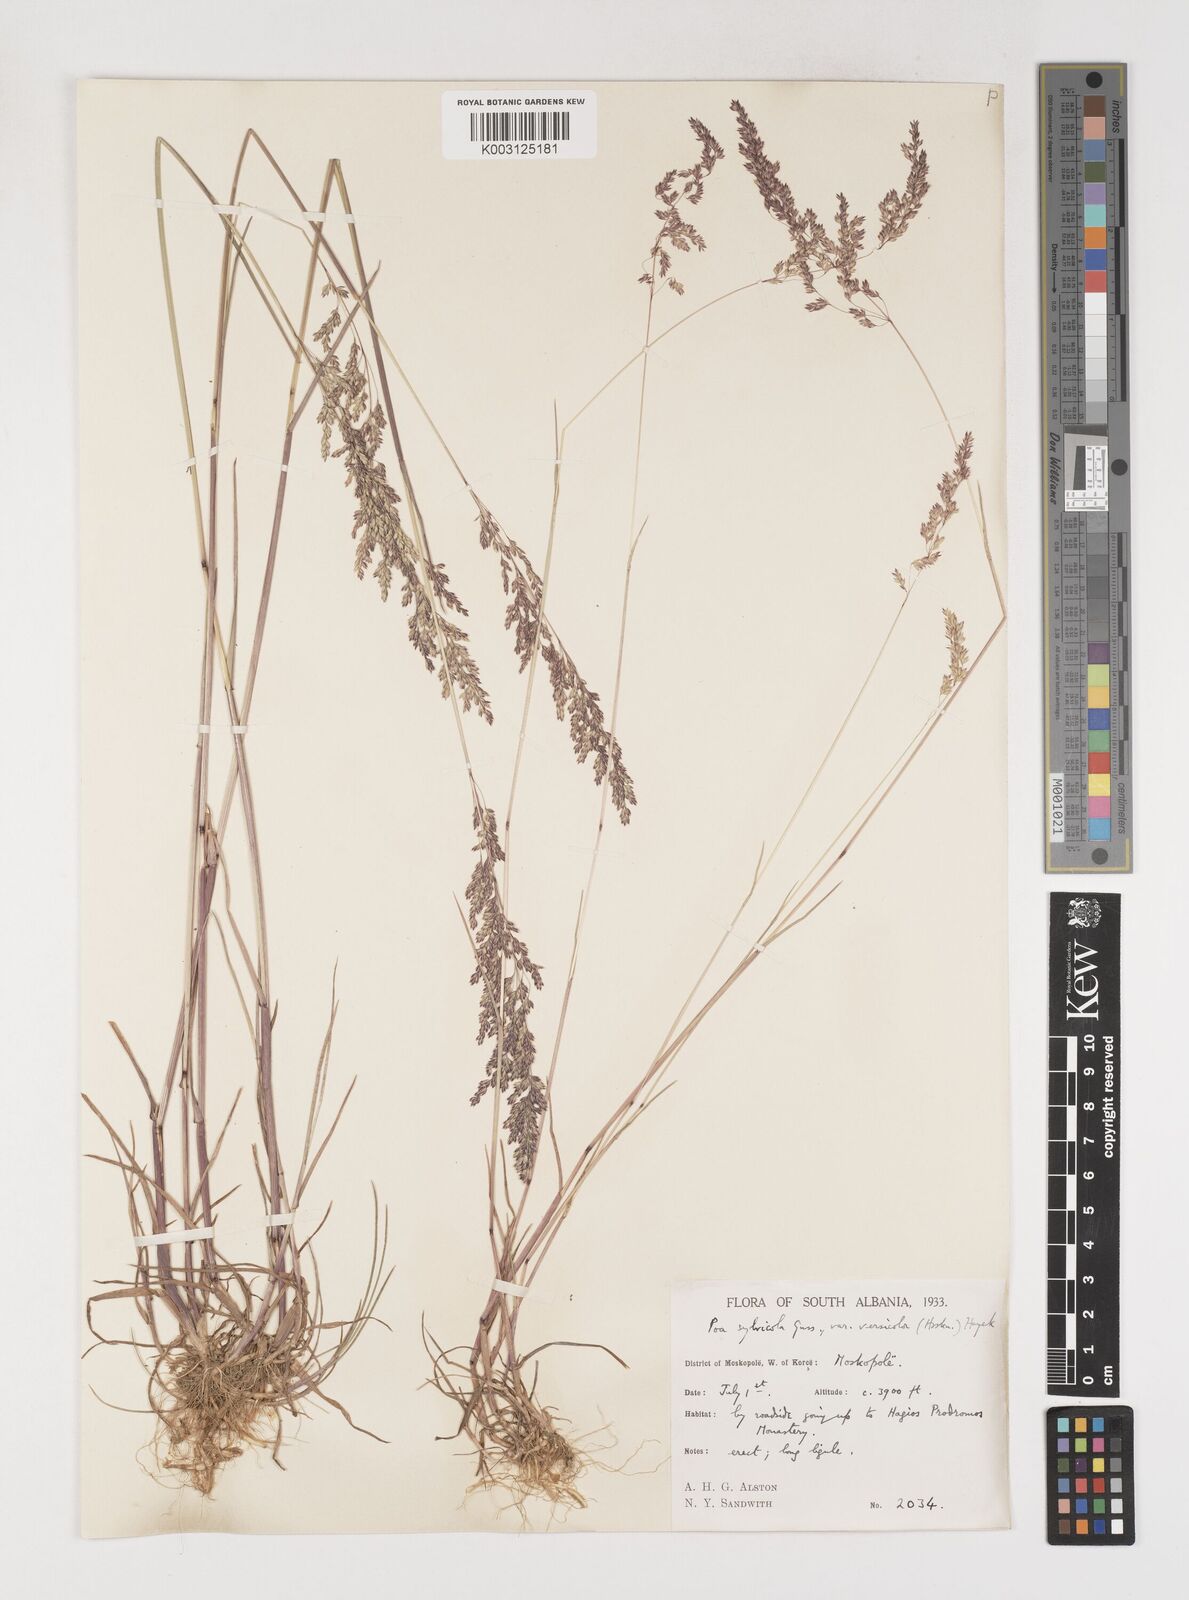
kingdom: Plantae
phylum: Tracheophyta
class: Liliopsida
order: Poales
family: Poaceae
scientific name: Poaceae
